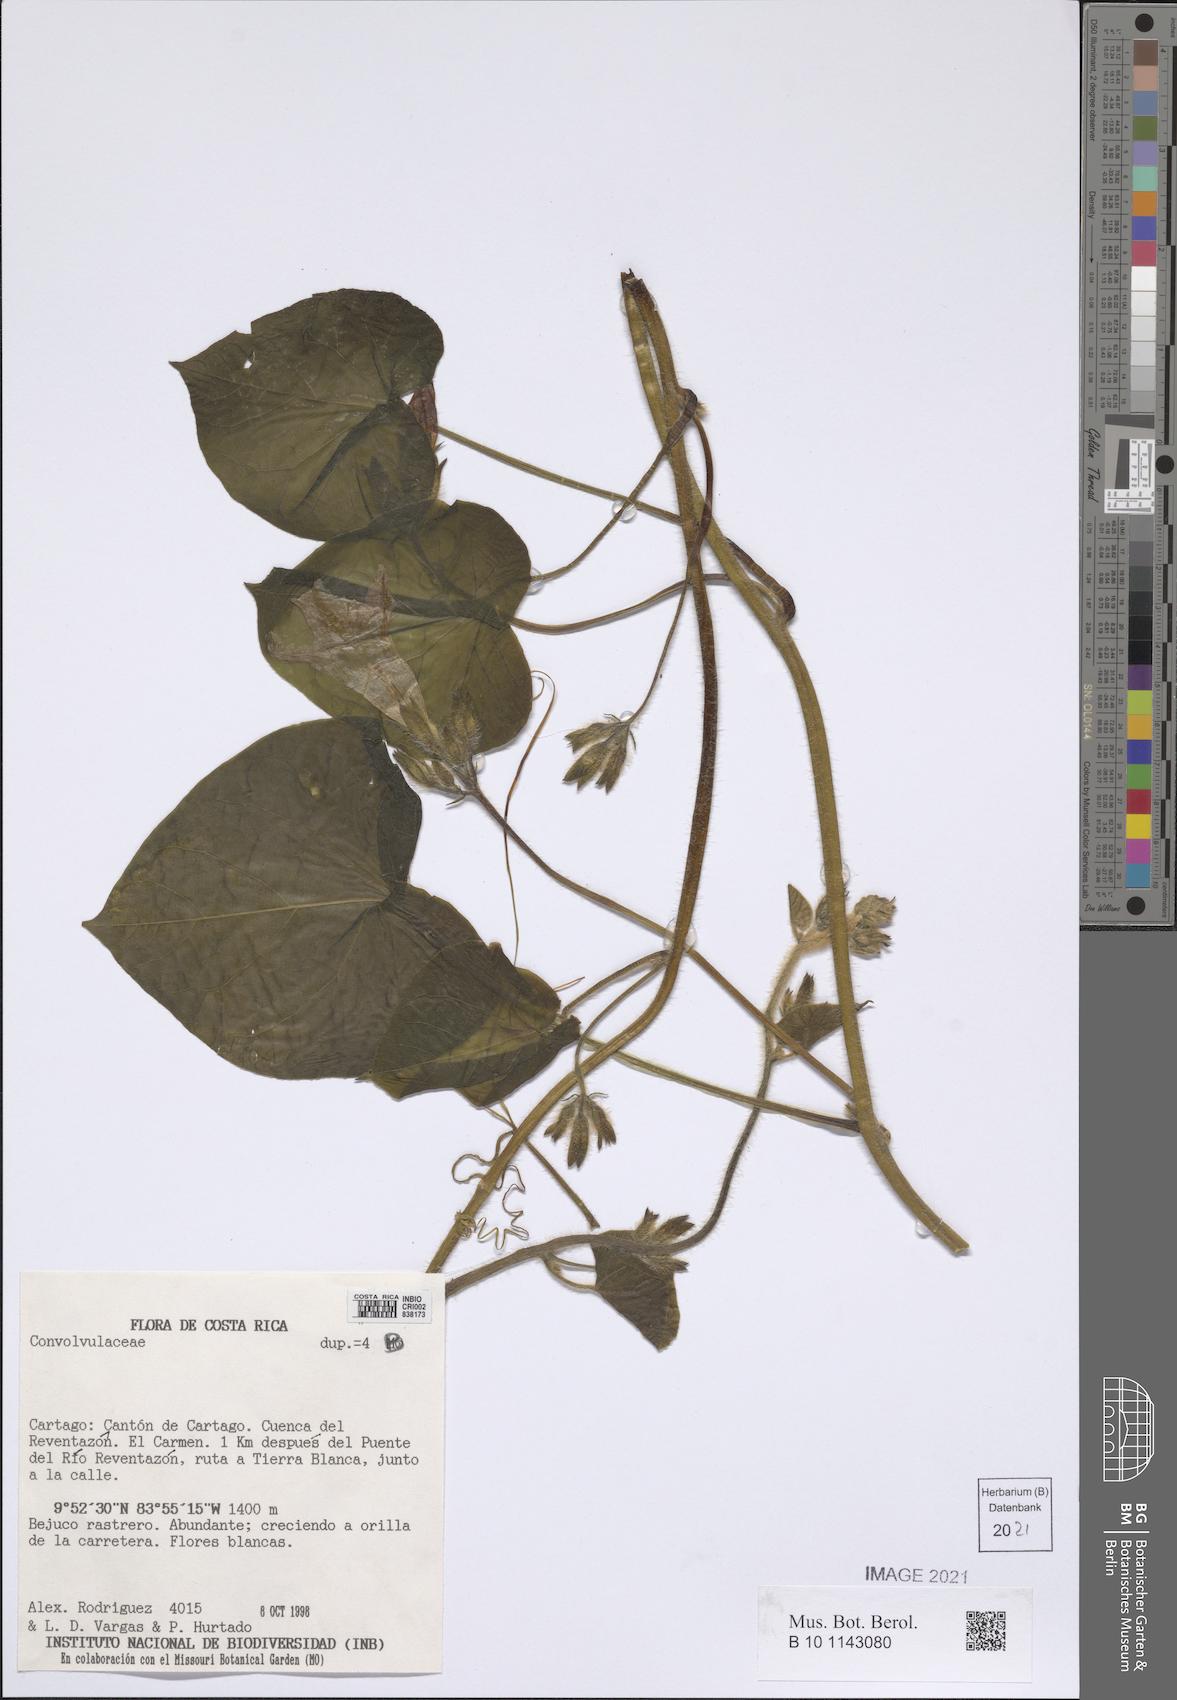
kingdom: Plantae
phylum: Tracheophyta
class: Magnoliopsida
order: Solanales
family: Convolvulaceae
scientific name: Convolvulaceae
